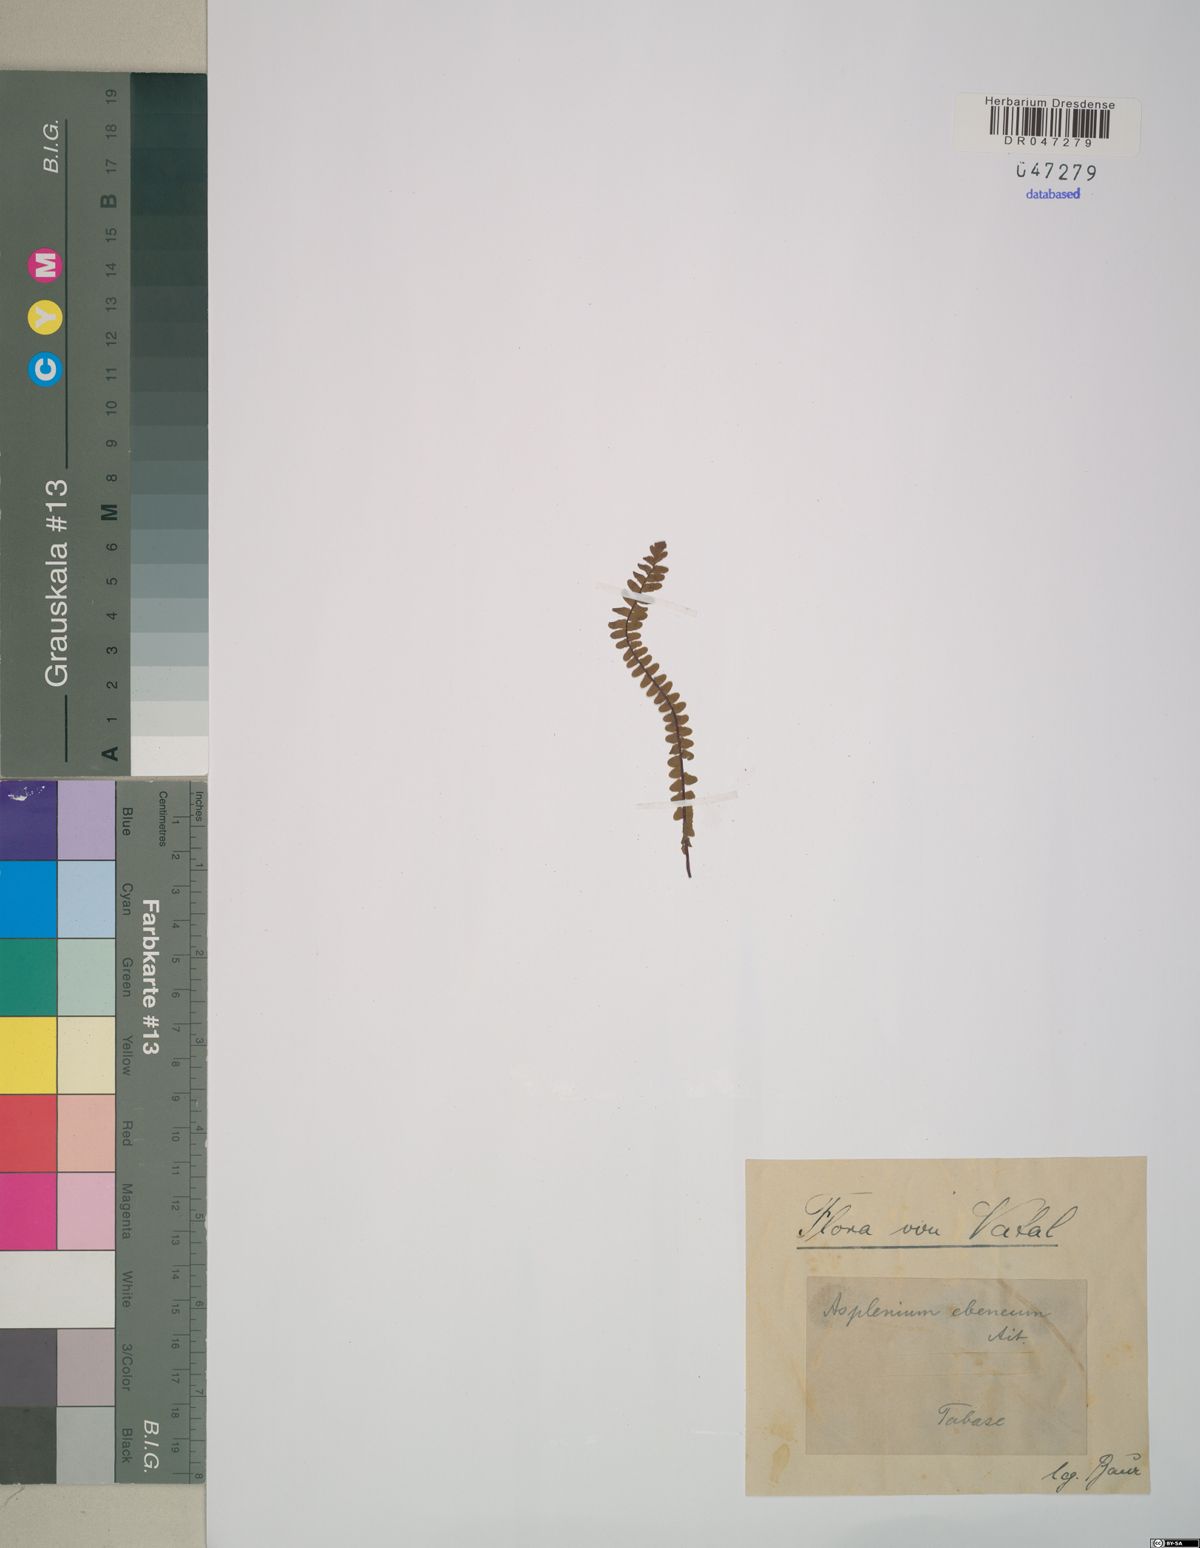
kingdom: Plantae
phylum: Tracheophyta
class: Polypodiopsida
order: Polypodiales
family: Aspleniaceae
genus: Asplenium
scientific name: Asplenium platyneuron
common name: Ebony spleenwort
